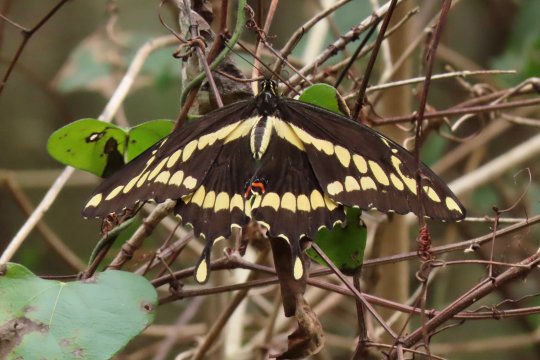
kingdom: Animalia
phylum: Arthropoda
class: Insecta
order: Lepidoptera
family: Papilionidae
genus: Papilio
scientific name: Papilio rumiko
